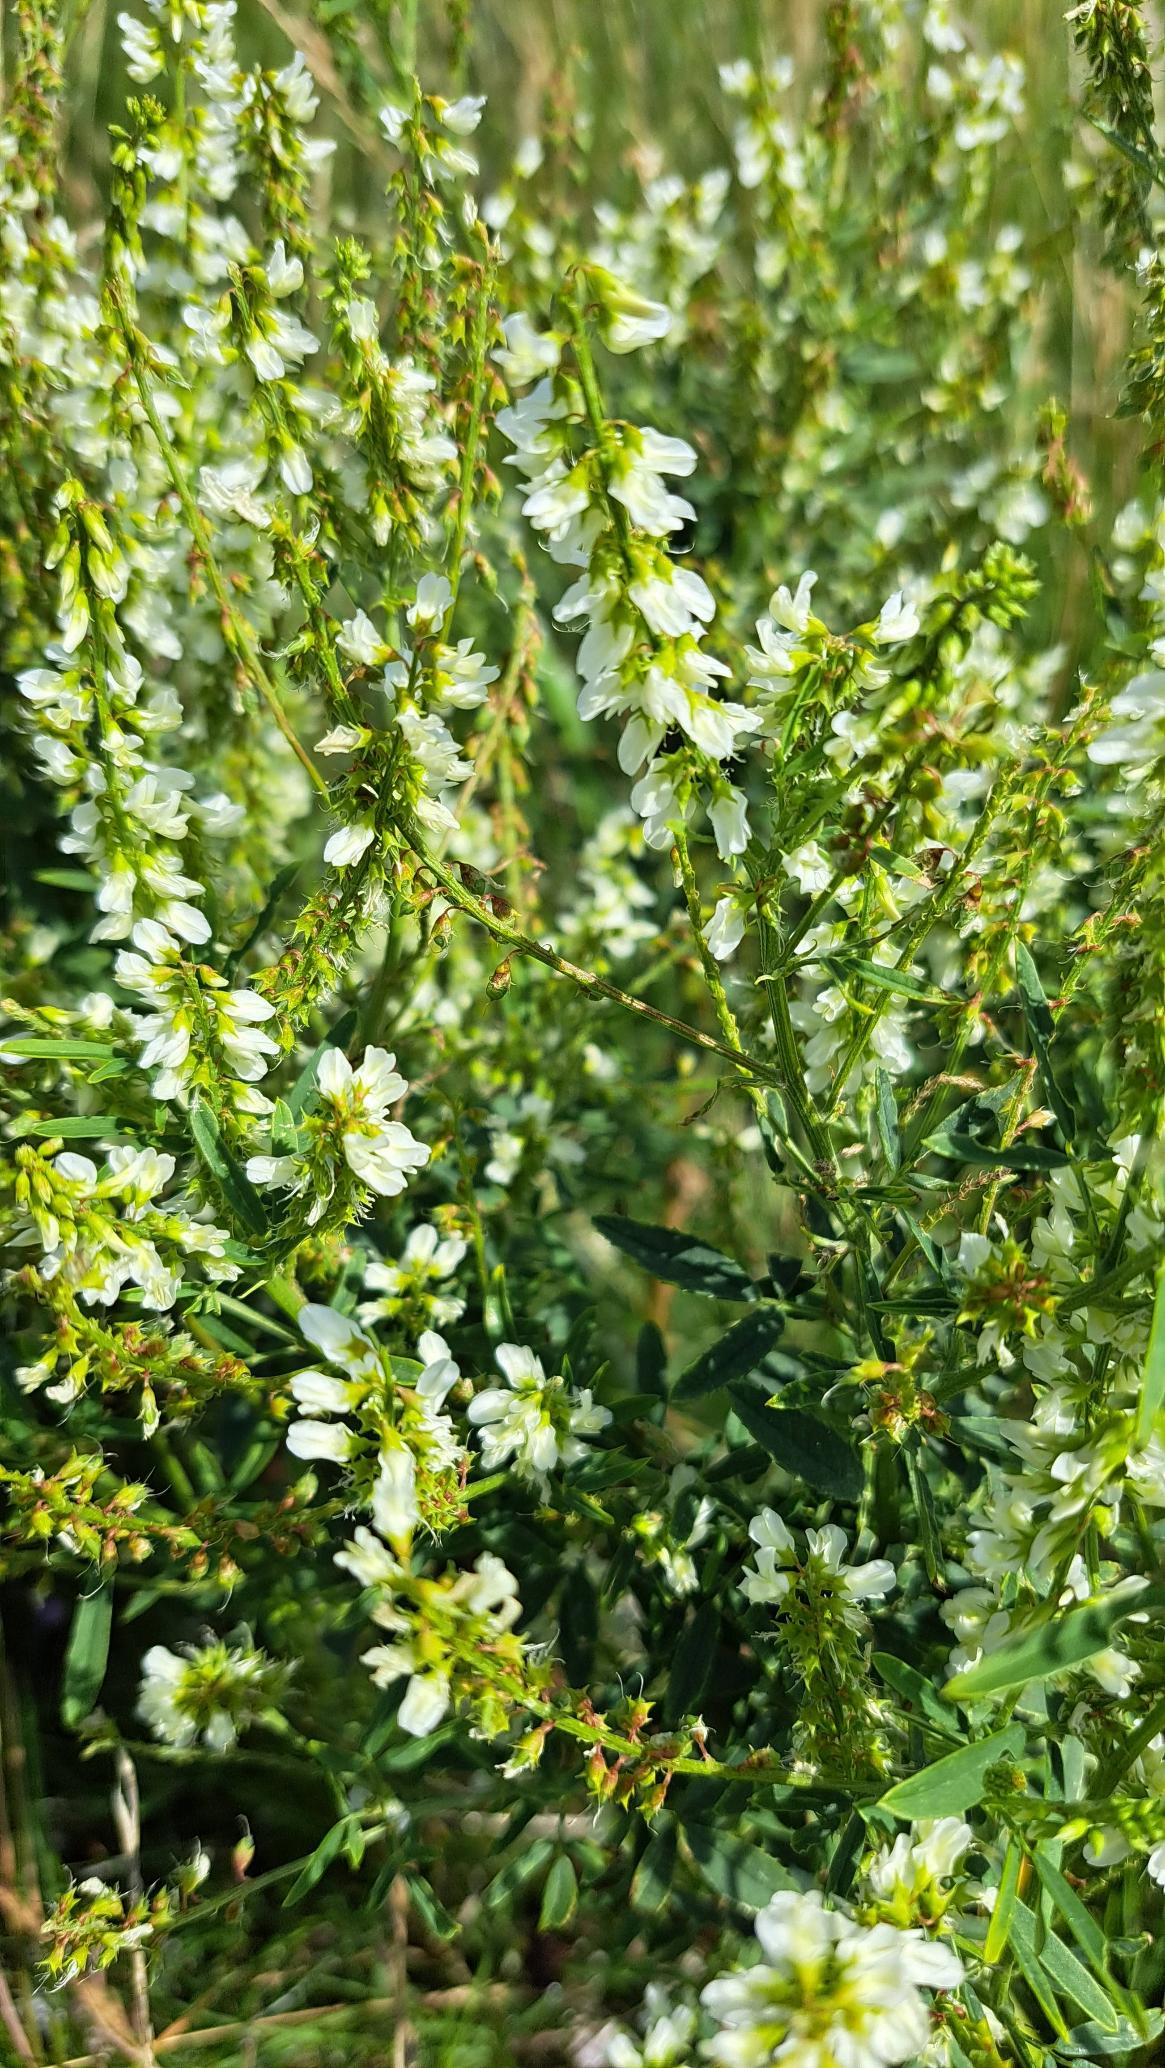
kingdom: Plantae
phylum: Tracheophyta
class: Magnoliopsida
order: Fabales
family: Fabaceae
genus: Melilotus
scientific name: Melilotus albus
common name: Hvid stenkløver
